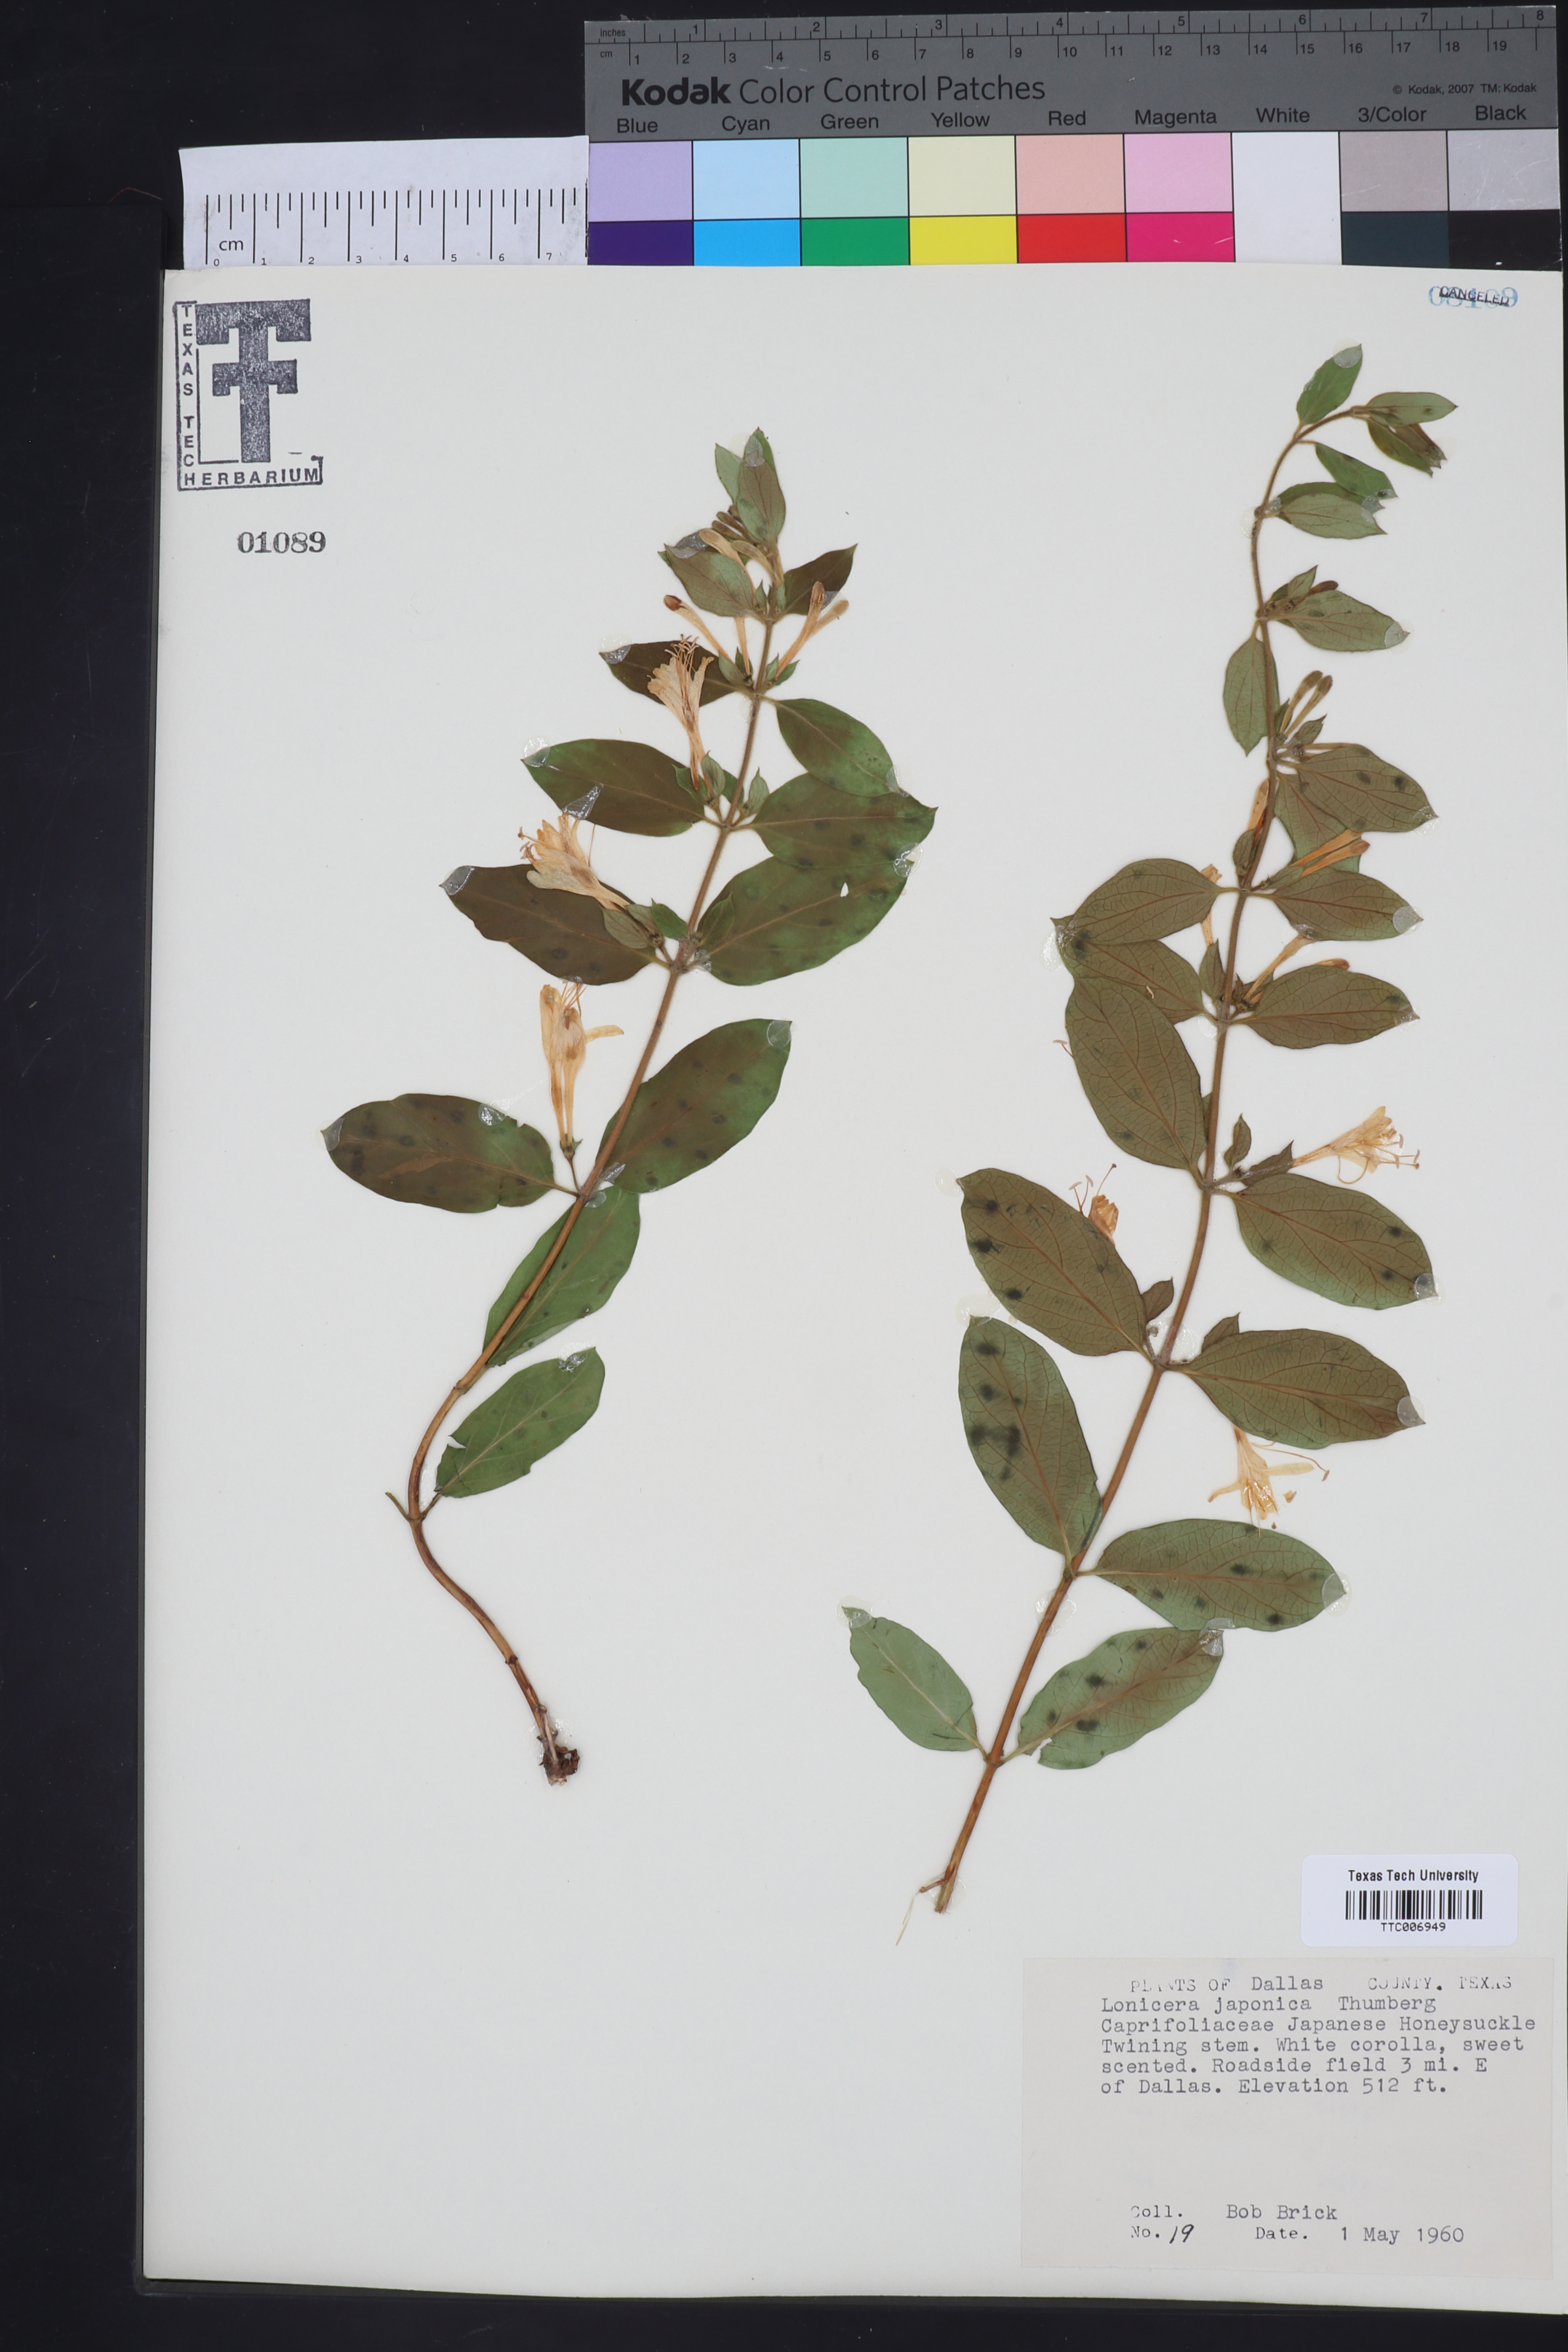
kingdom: Plantae
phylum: Tracheophyta
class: Magnoliopsida
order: Dipsacales
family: Caprifoliaceae
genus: Lonicera
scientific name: Lonicera japonica
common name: Japanese honeysuckle
